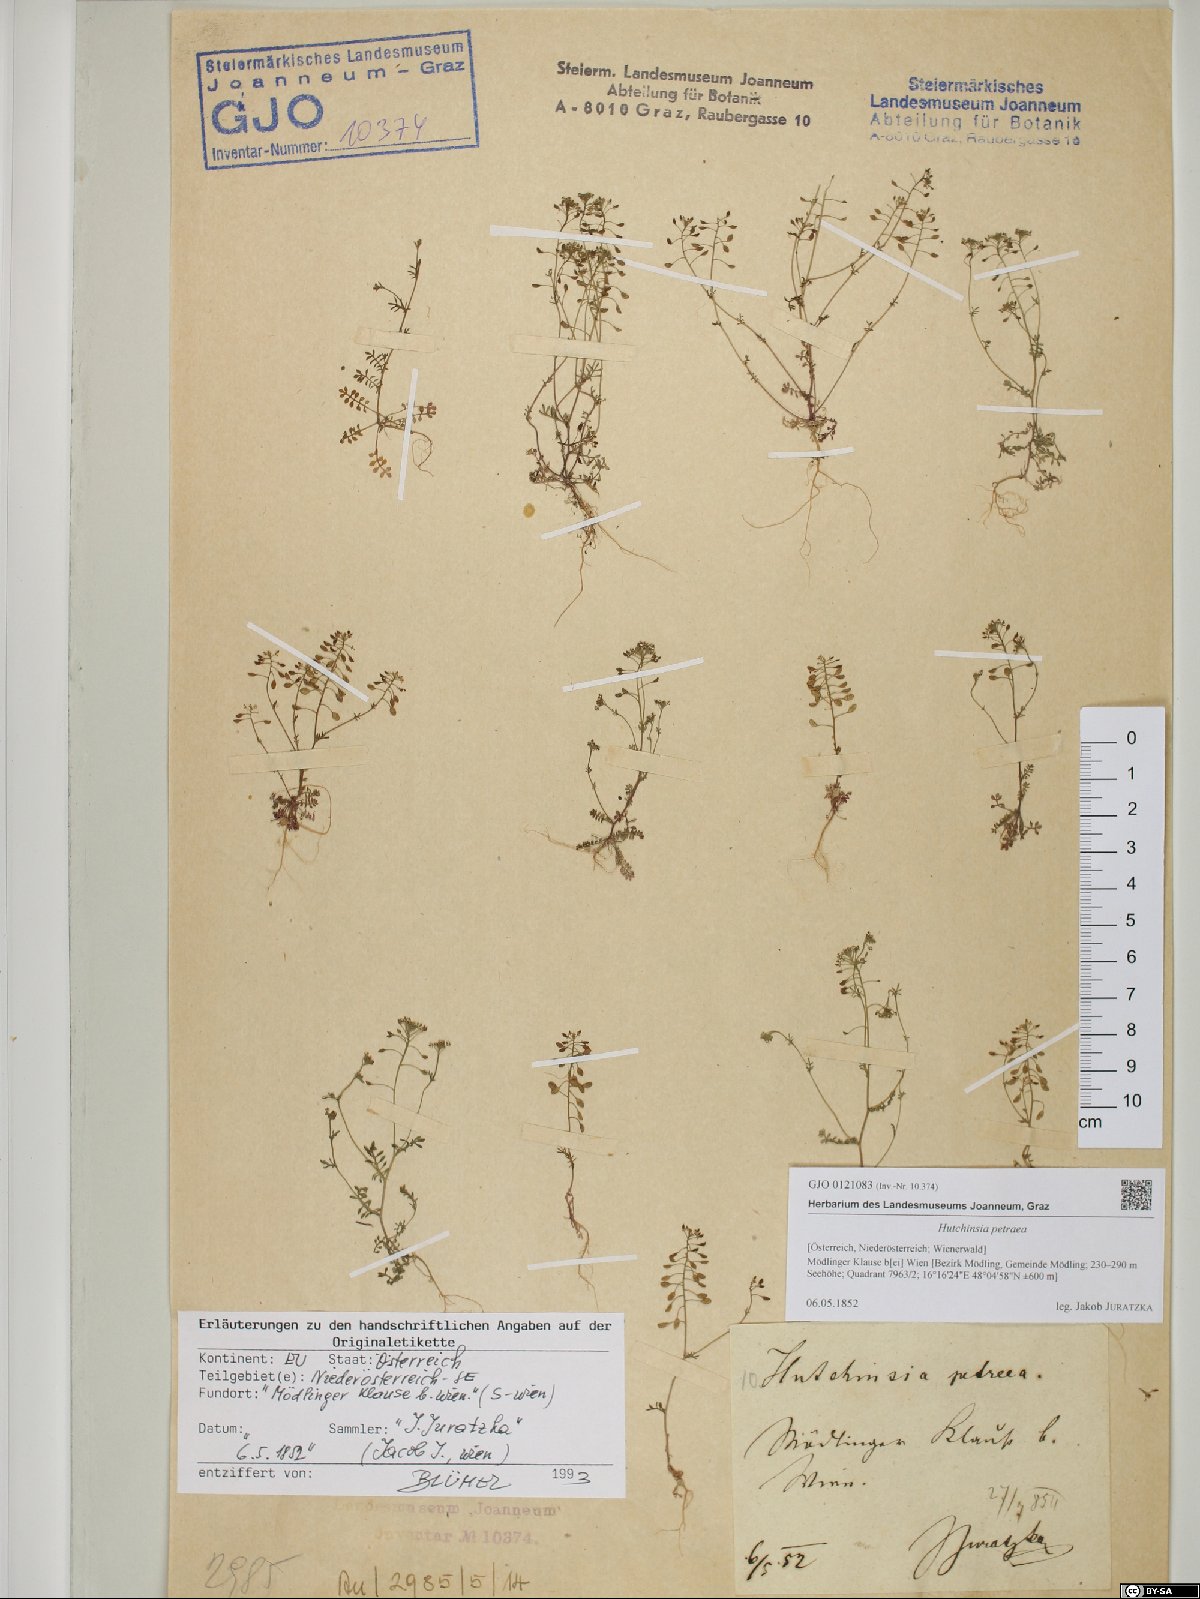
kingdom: Plantae
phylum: Tracheophyta
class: Magnoliopsida
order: Brassicales
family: Brassicaceae
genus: Hornungia
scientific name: Hornungia petraea
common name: Hutchinsia
